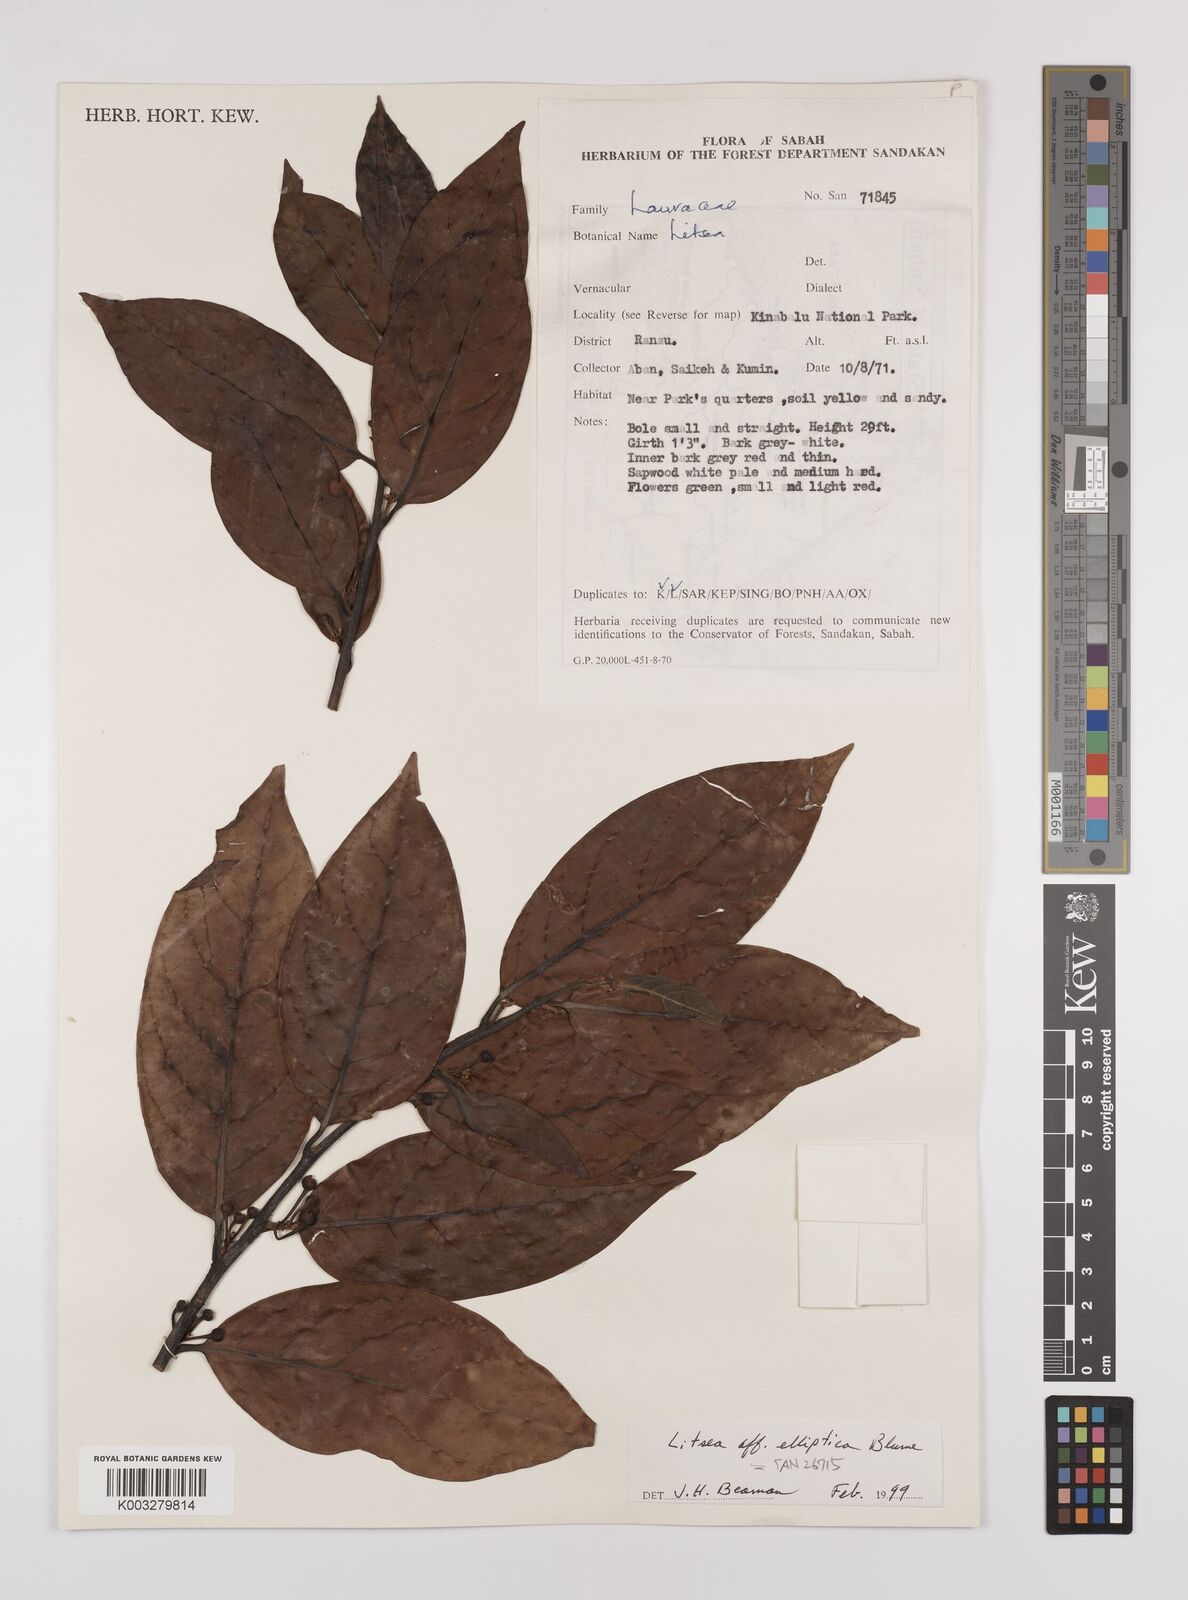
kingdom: Plantae
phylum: Tracheophyta
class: Magnoliopsida
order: Laurales
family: Lauraceae
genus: Litsea
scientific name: Litsea elliptica
